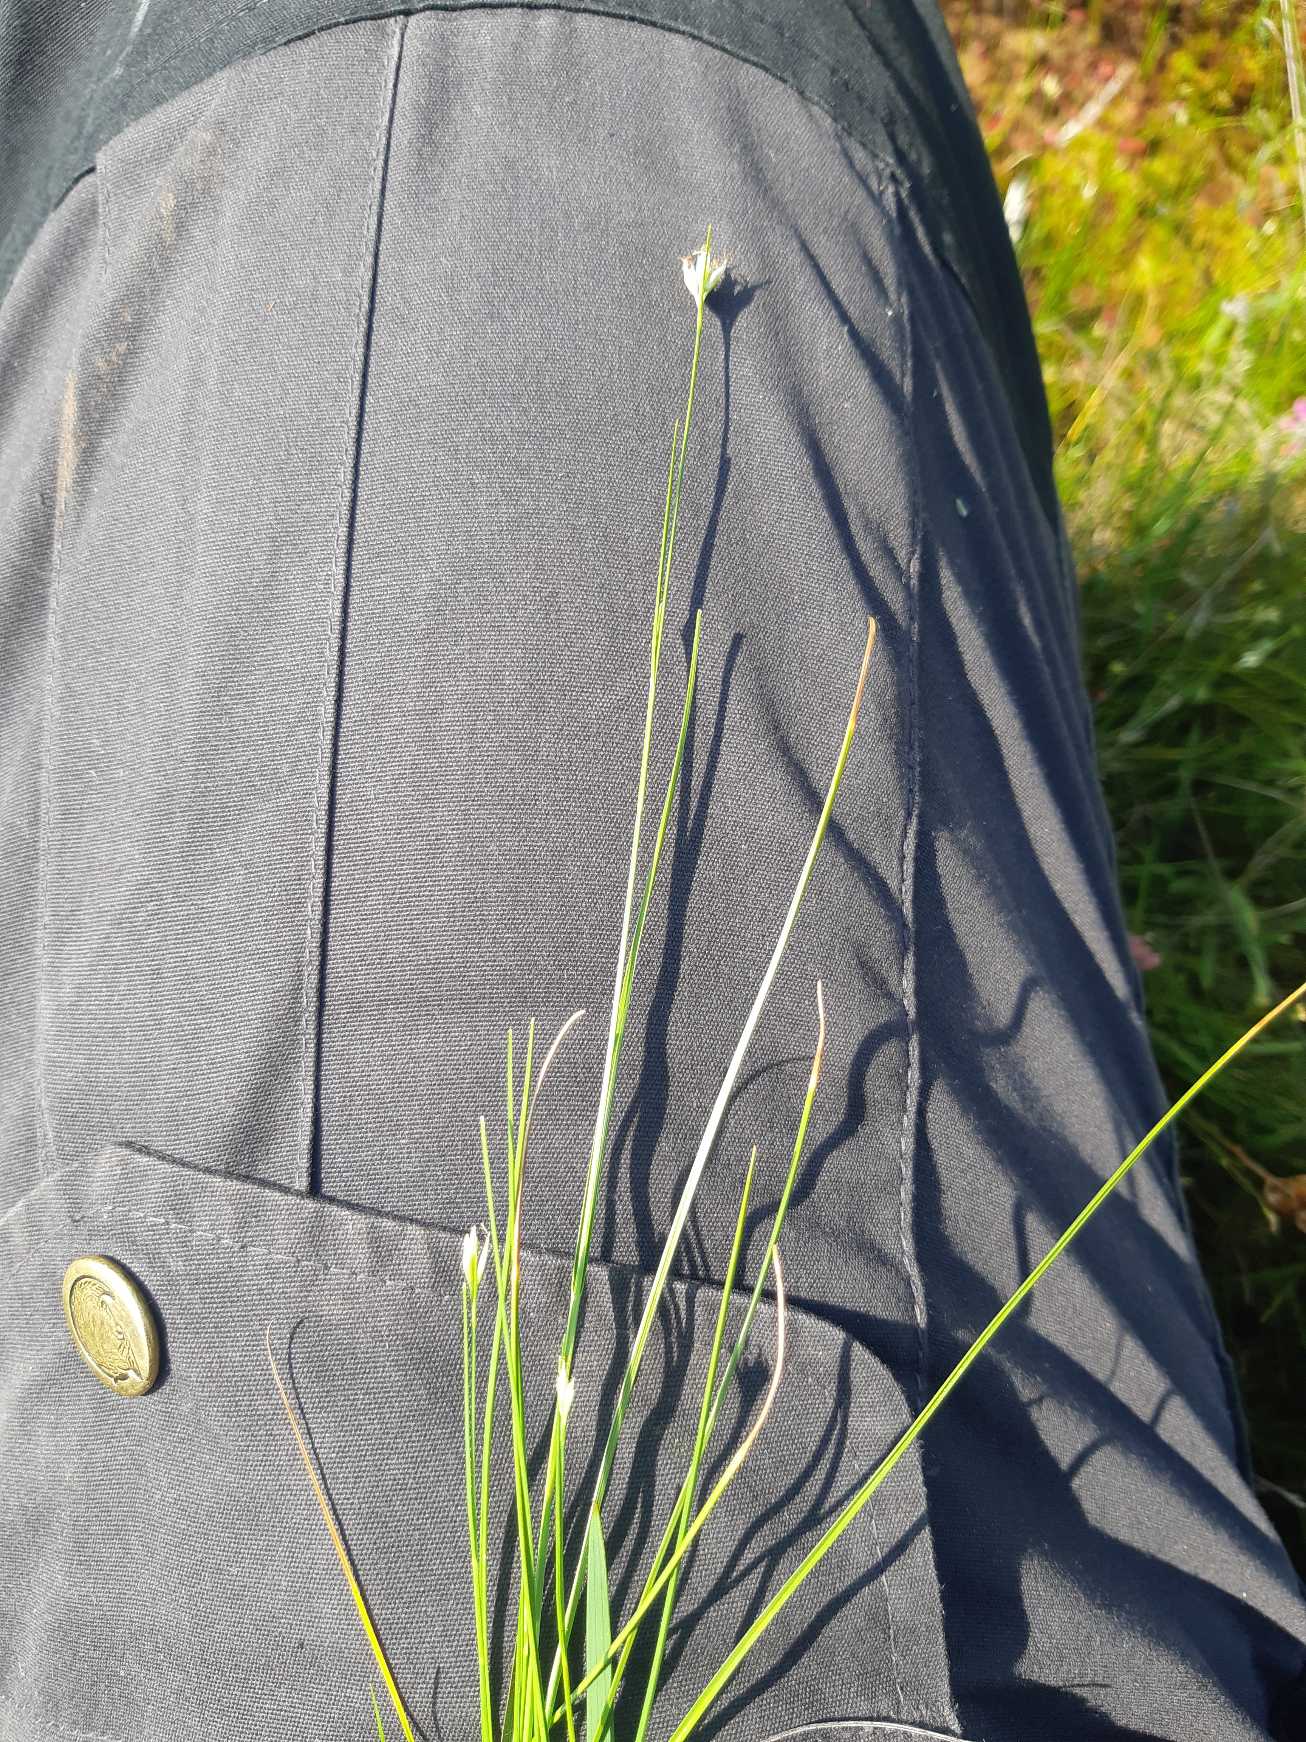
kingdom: Plantae
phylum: Tracheophyta
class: Liliopsida
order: Poales
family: Cyperaceae
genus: Rhynchospora
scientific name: Rhynchospora alba
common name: Hvid næbfrø
